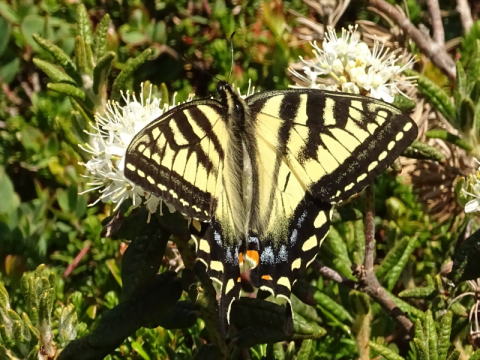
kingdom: Animalia
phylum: Arthropoda
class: Insecta
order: Lepidoptera
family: Papilionidae
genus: Pterourus
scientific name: Pterourus canadensis
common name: Canadian Tiger Swallowtail
